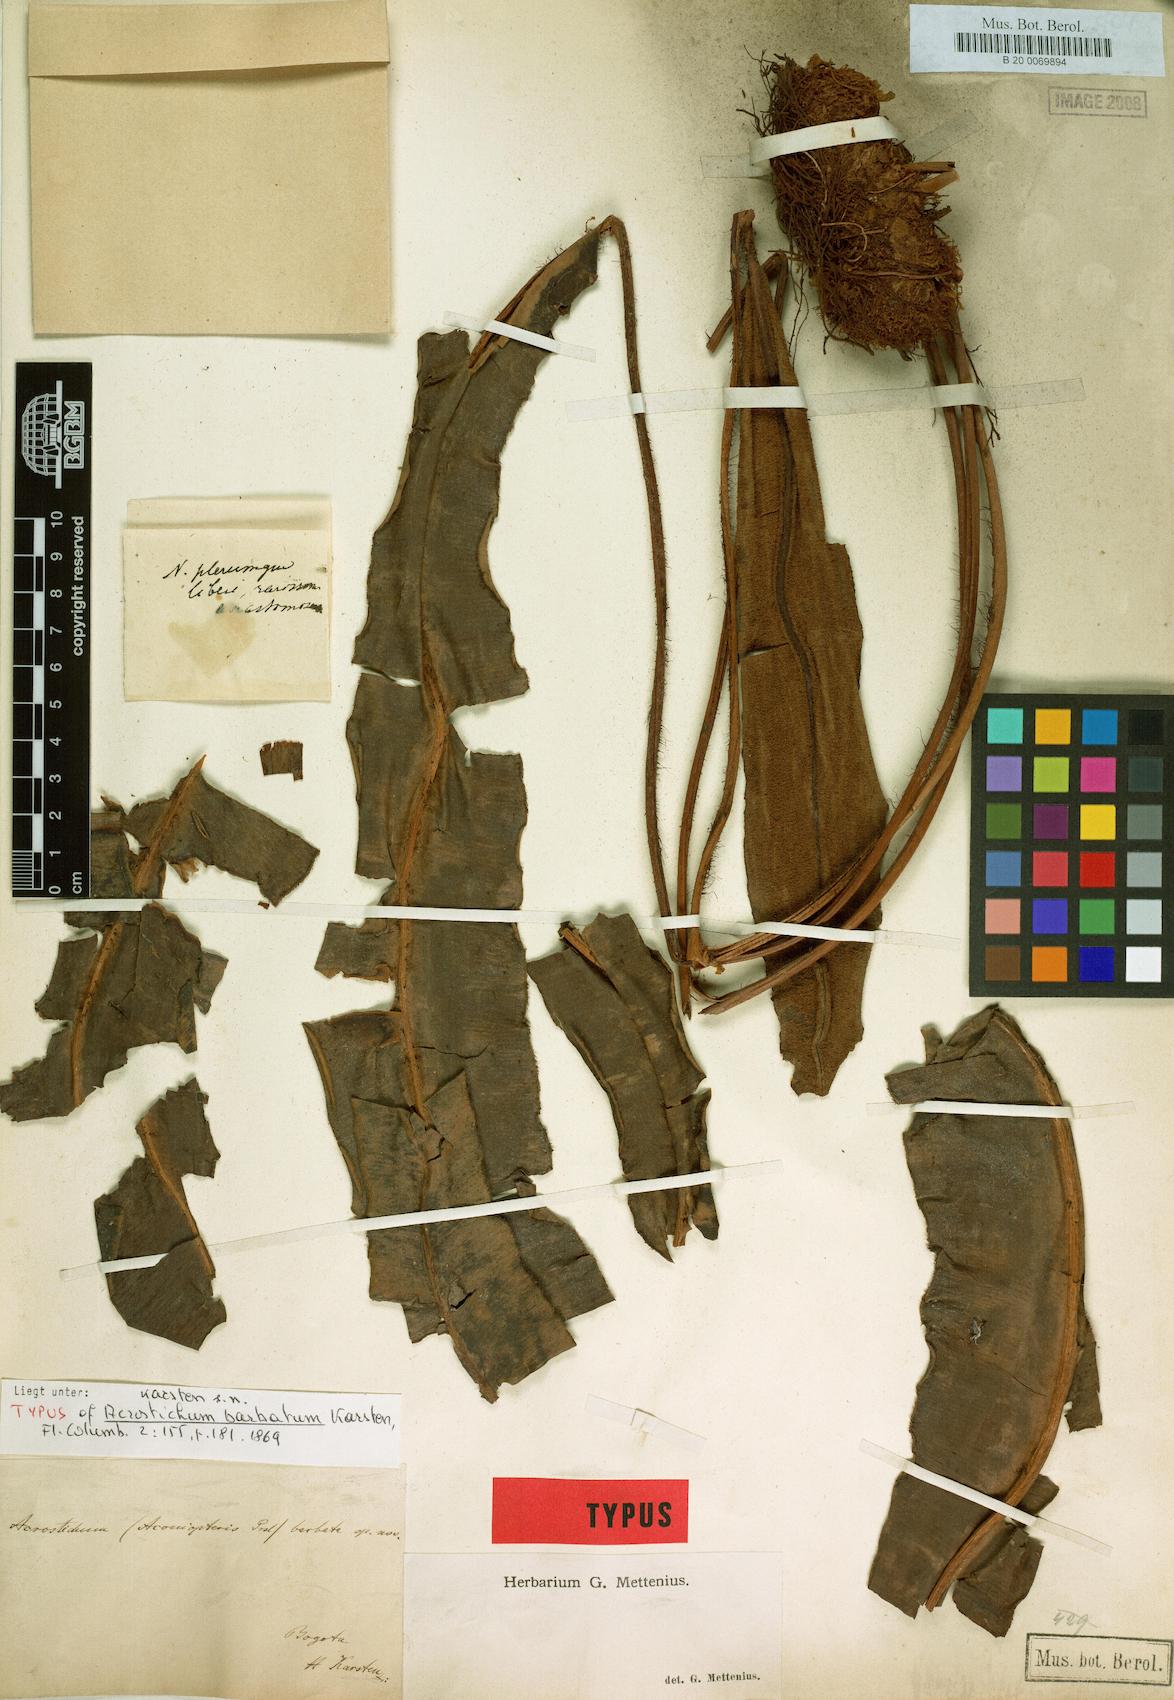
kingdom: Plantae
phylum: Tracheophyta
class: Polypodiopsida
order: Polypodiales
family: Dryopteridaceae
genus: Elaphoglossum
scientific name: Elaphoglossum barbatum
